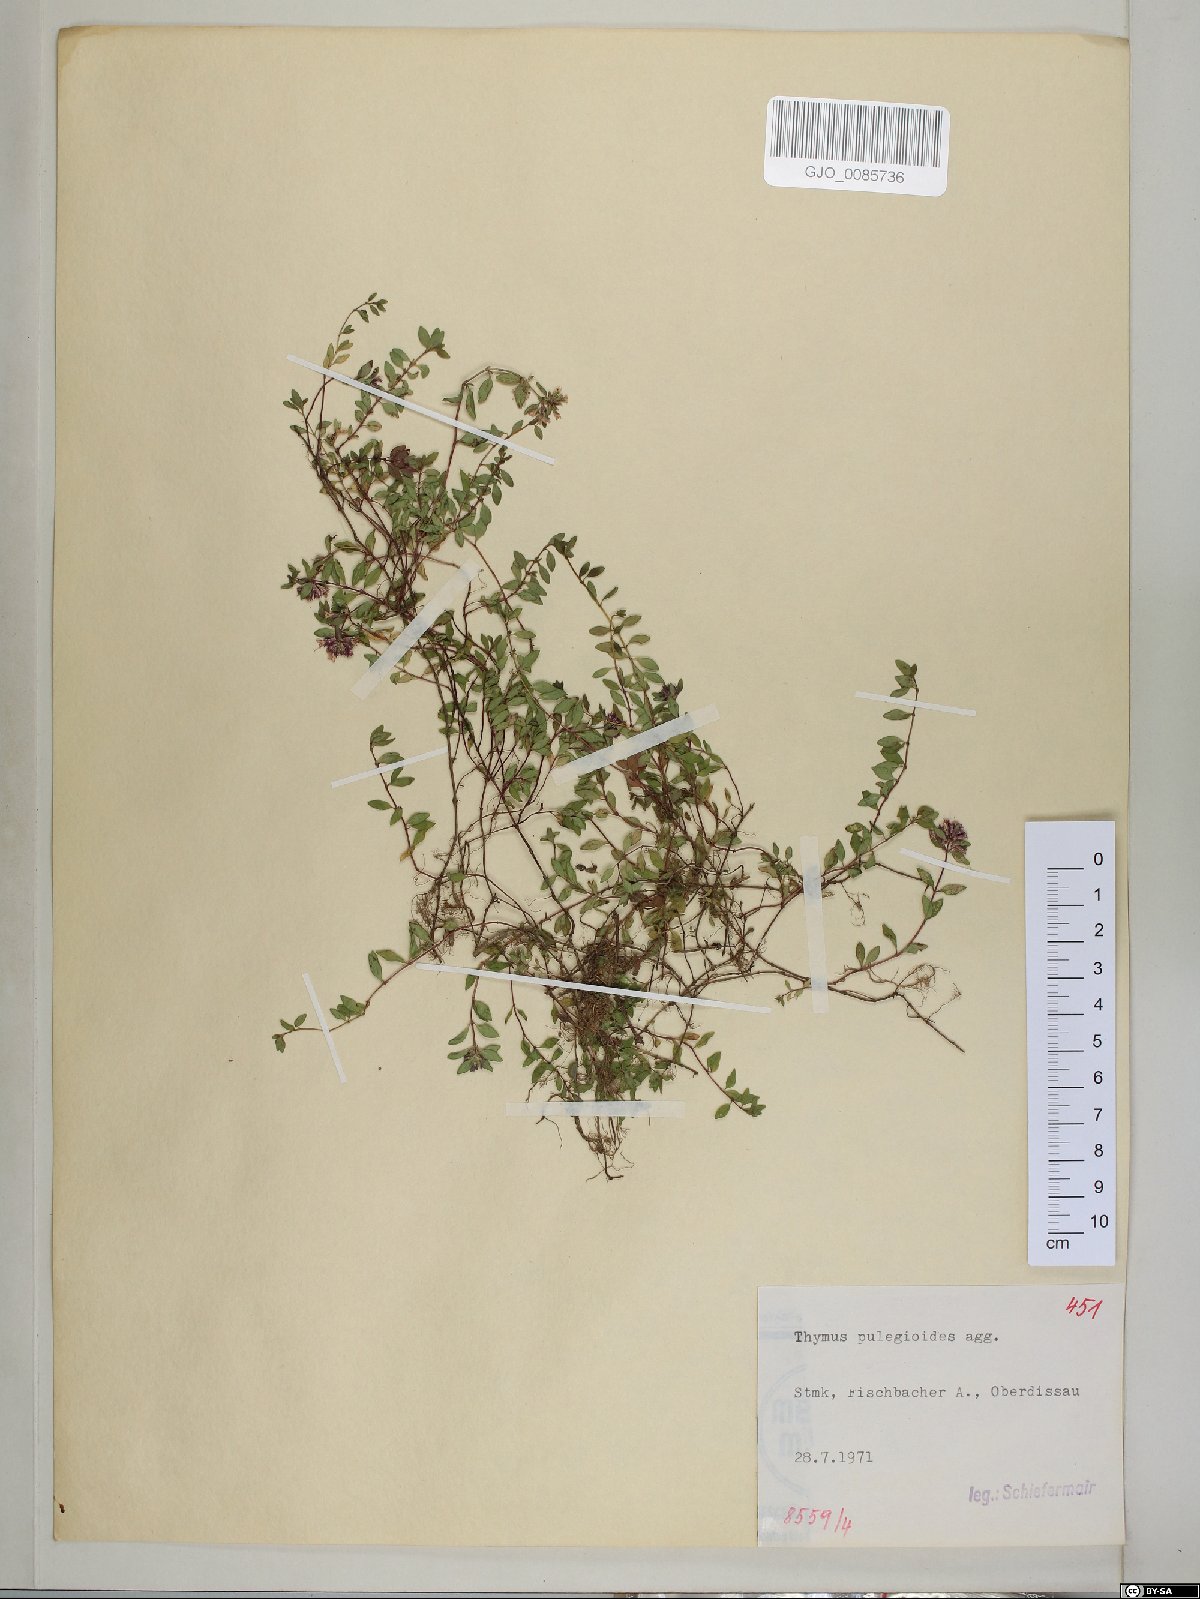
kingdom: Plantae
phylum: Tracheophyta
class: Magnoliopsida
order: Lamiales
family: Lamiaceae
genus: Thymus
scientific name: Thymus pulegioides
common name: Large thyme
